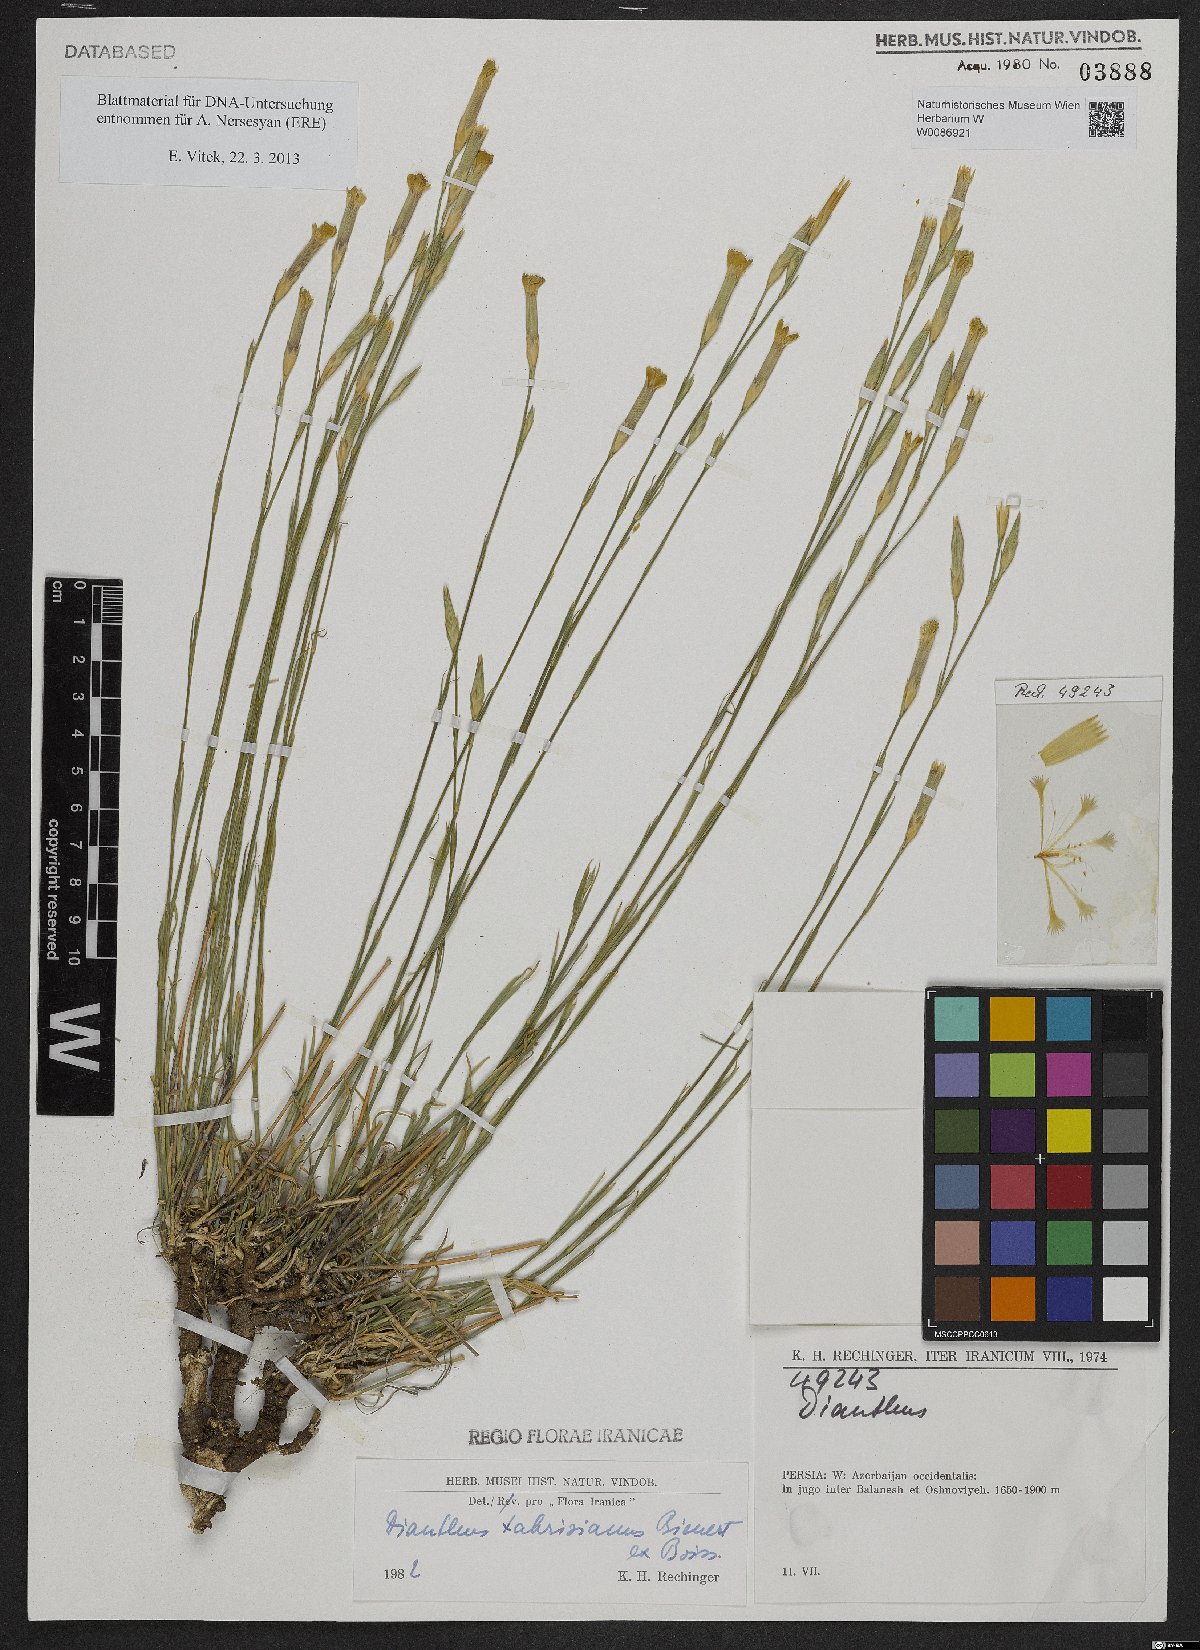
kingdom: Plantae
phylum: Tracheophyta
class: Magnoliopsida
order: Caryophyllales
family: Caryophyllaceae
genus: Dianthus
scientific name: Dianthus tabrisianus
